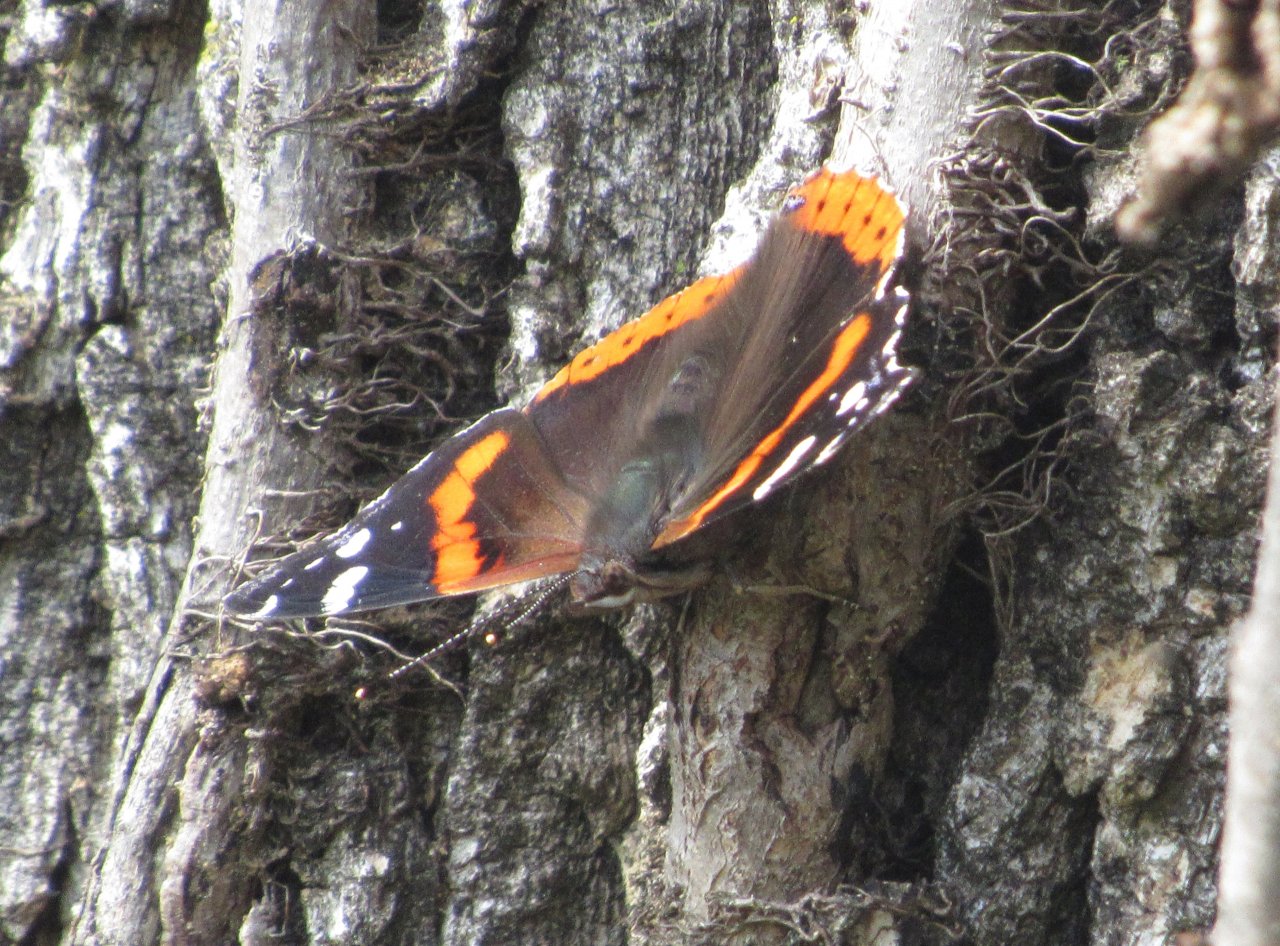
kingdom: Animalia
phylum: Arthropoda
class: Insecta
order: Lepidoptera
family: Nymphalidae
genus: Vanessa
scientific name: Vanessa atalanta
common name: Red Admiral
